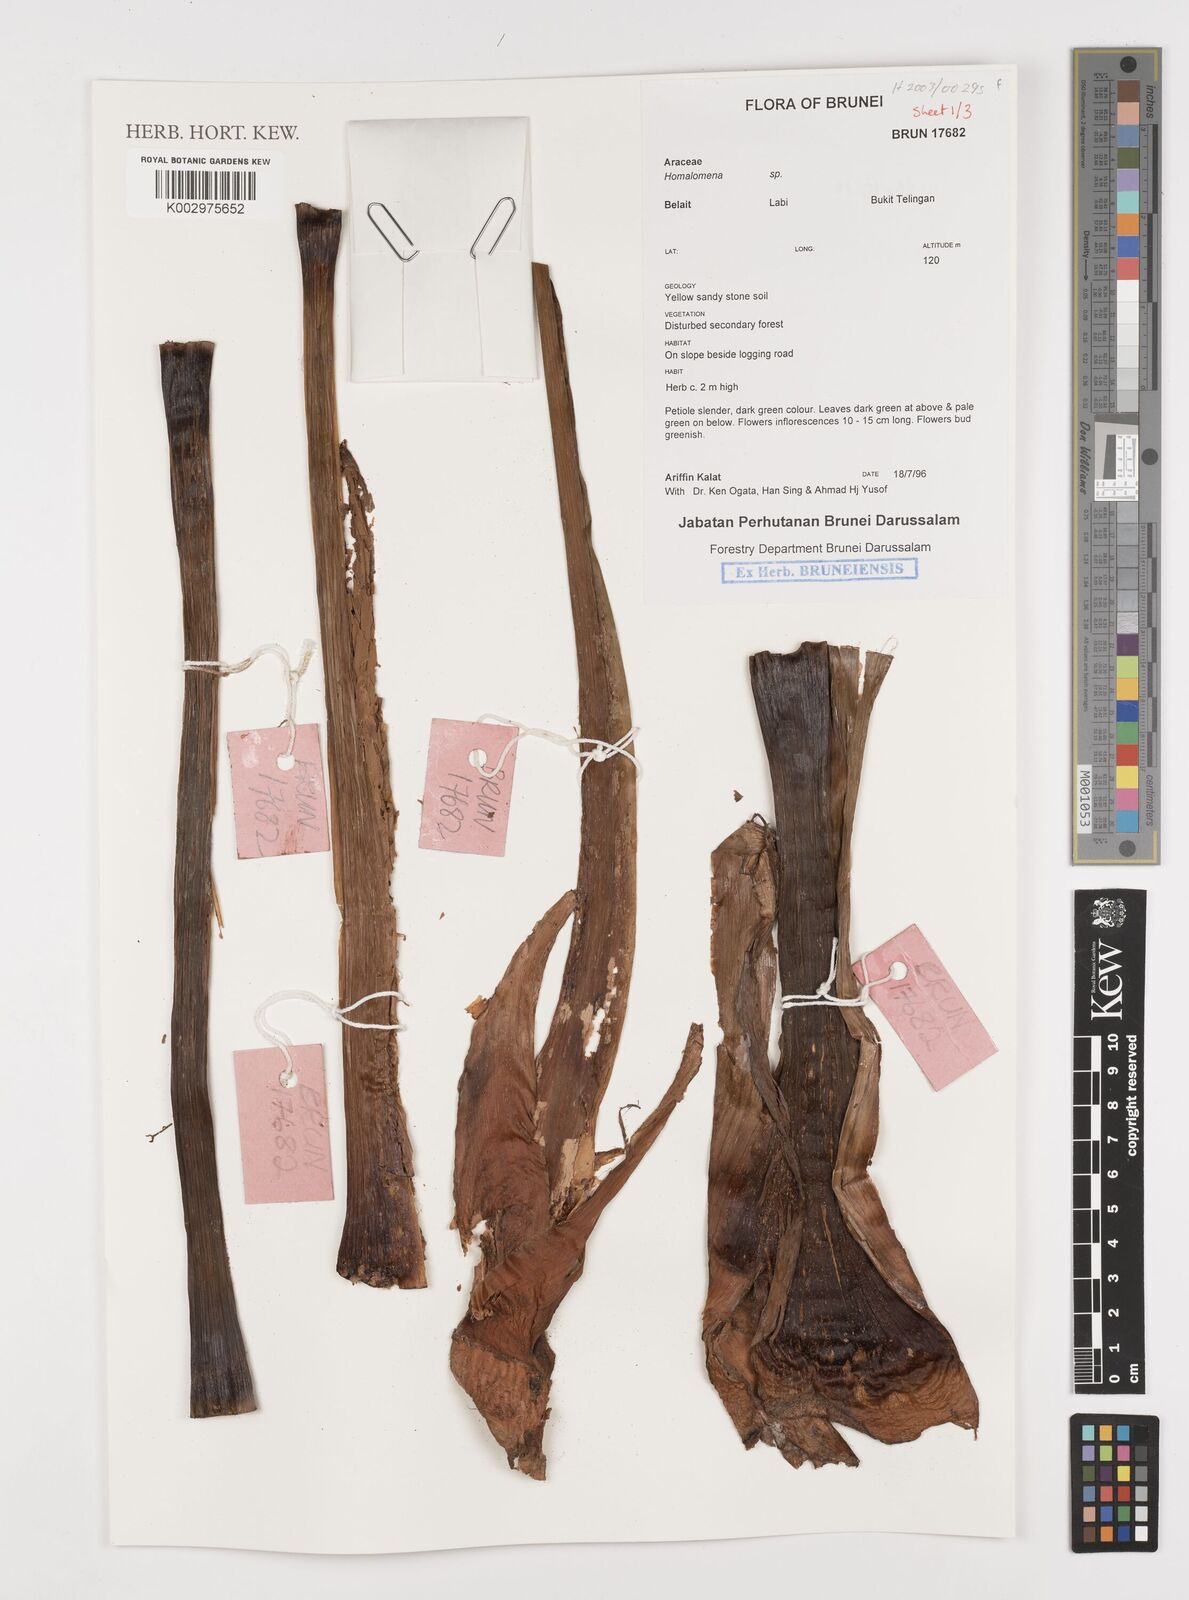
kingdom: Plantae
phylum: Tracheophyta
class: Liliopsida
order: Alismatales
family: Araceae
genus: Homalomena
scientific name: Homalomena
